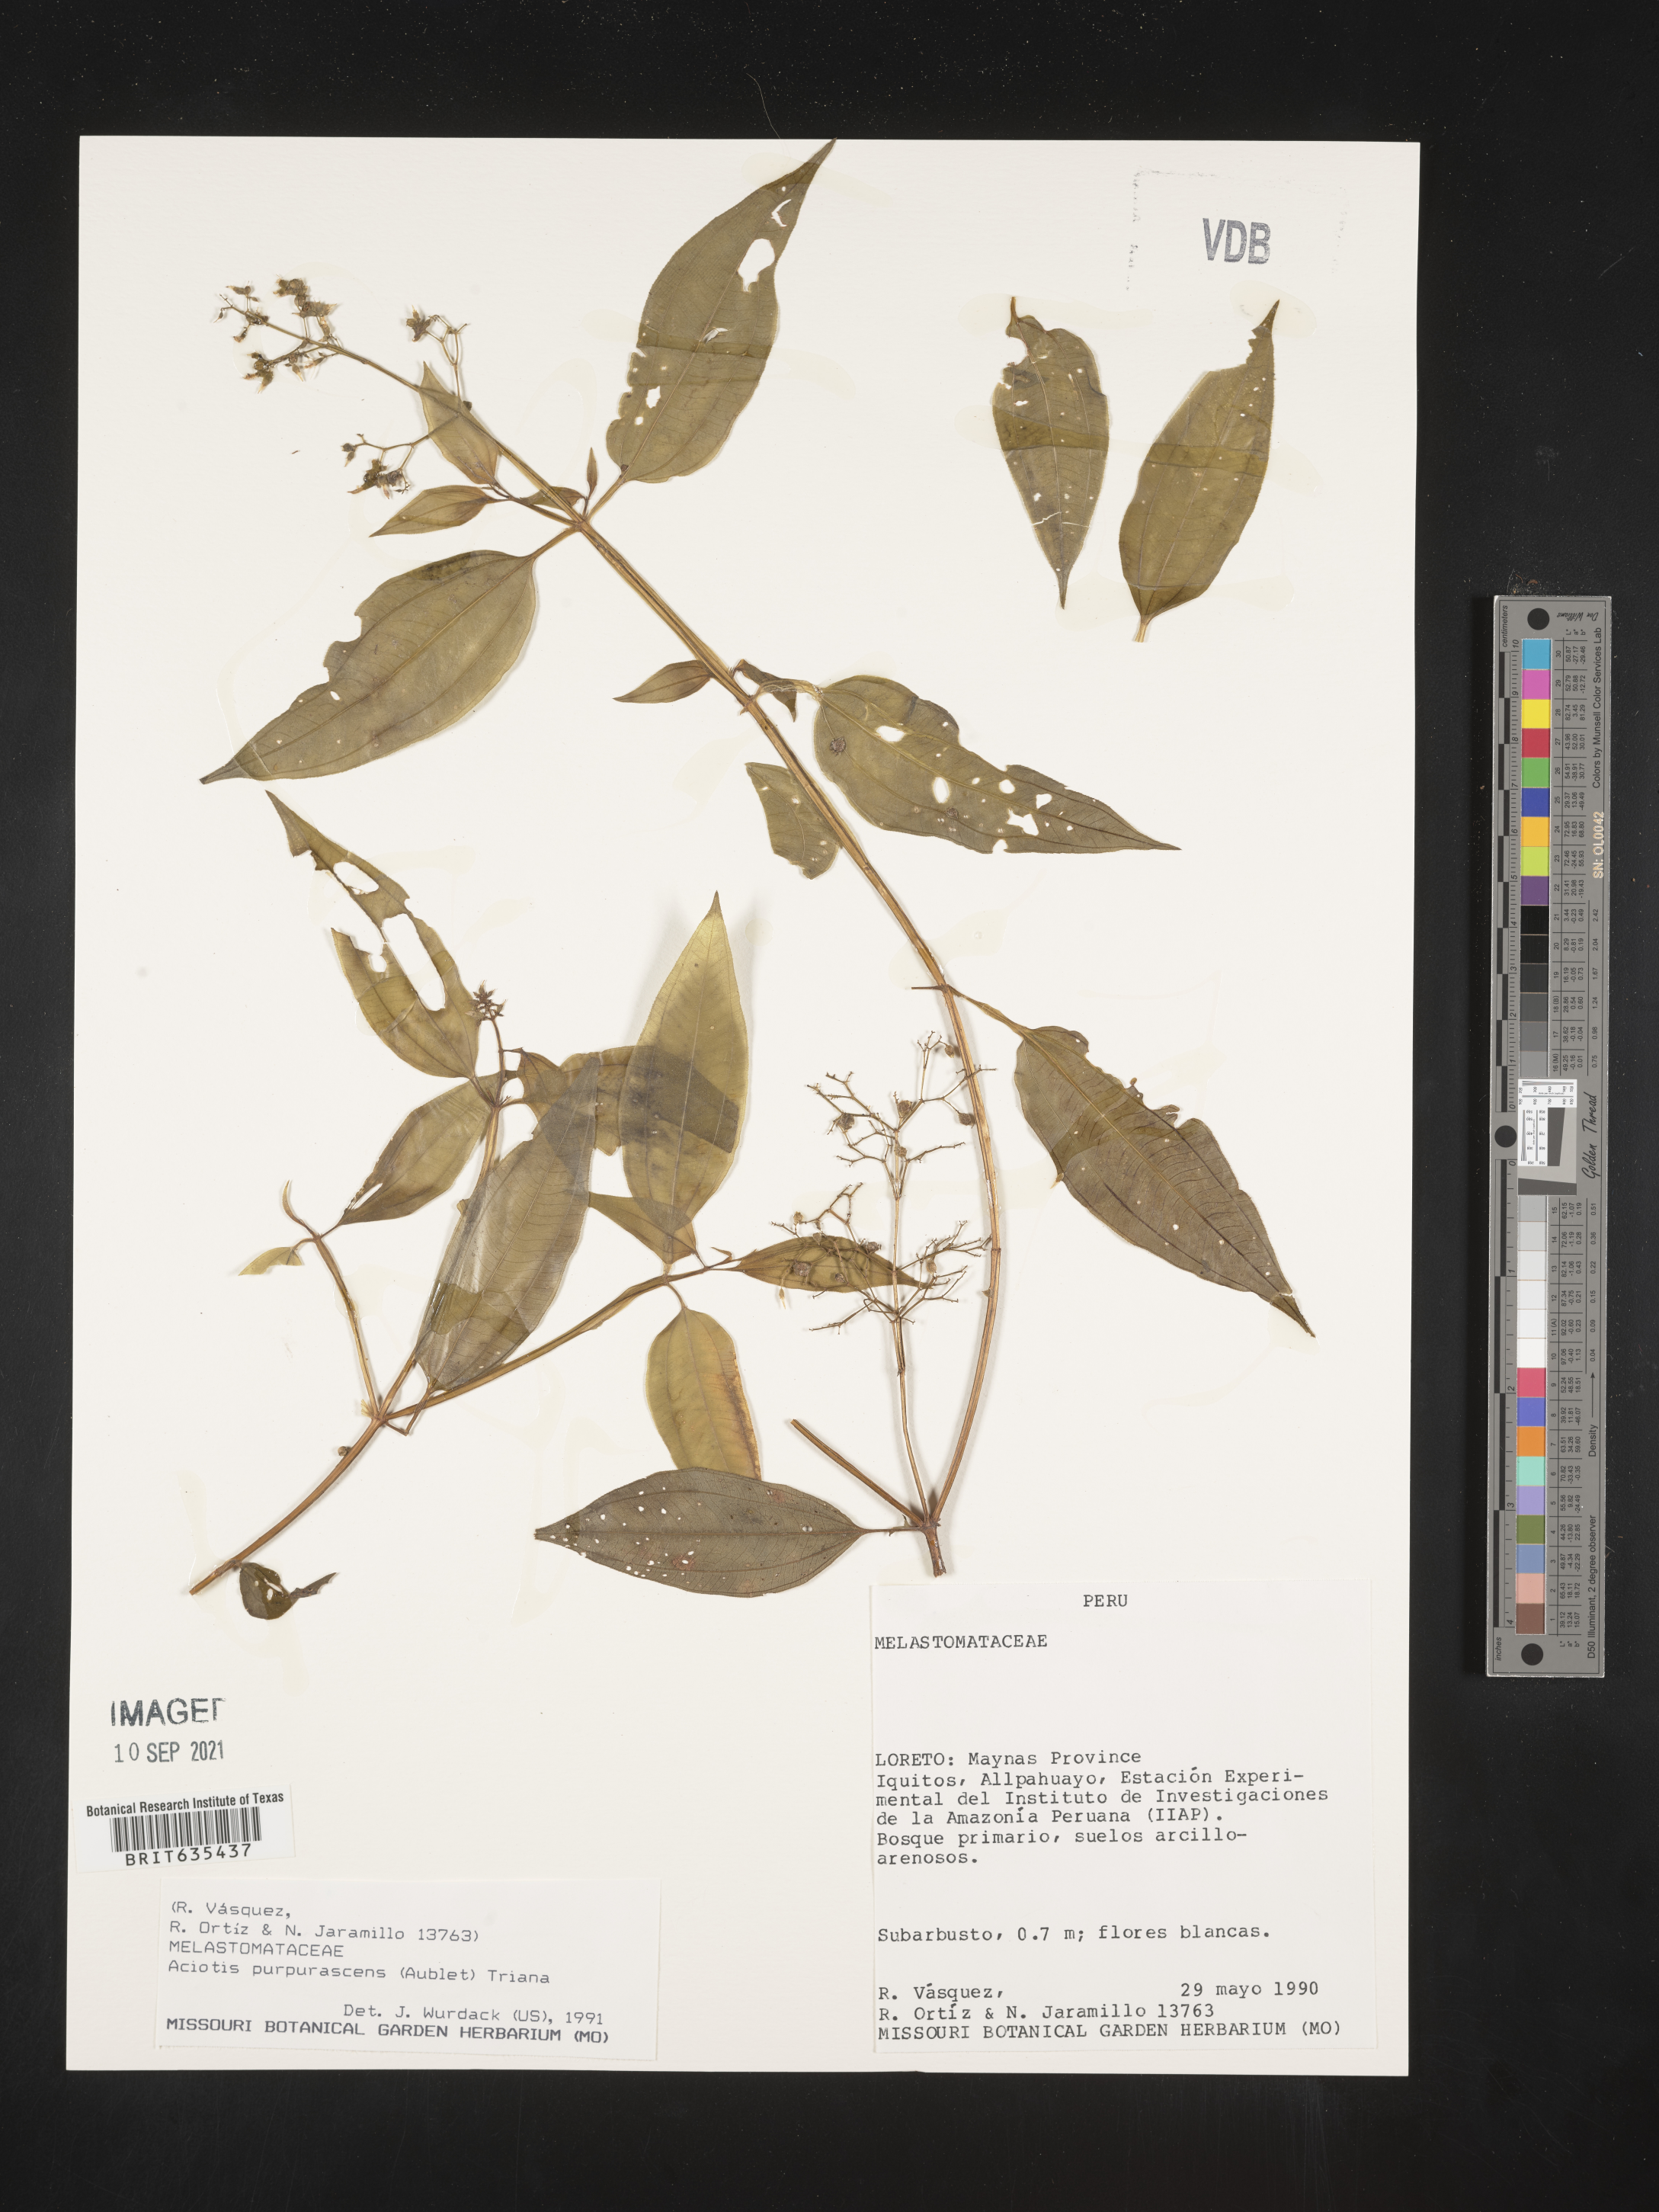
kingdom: Plantae
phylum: Tracheophyta
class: Magnoliopsida
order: Myrtales
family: Melastomataceae
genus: Aciotis
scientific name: Aciotis
